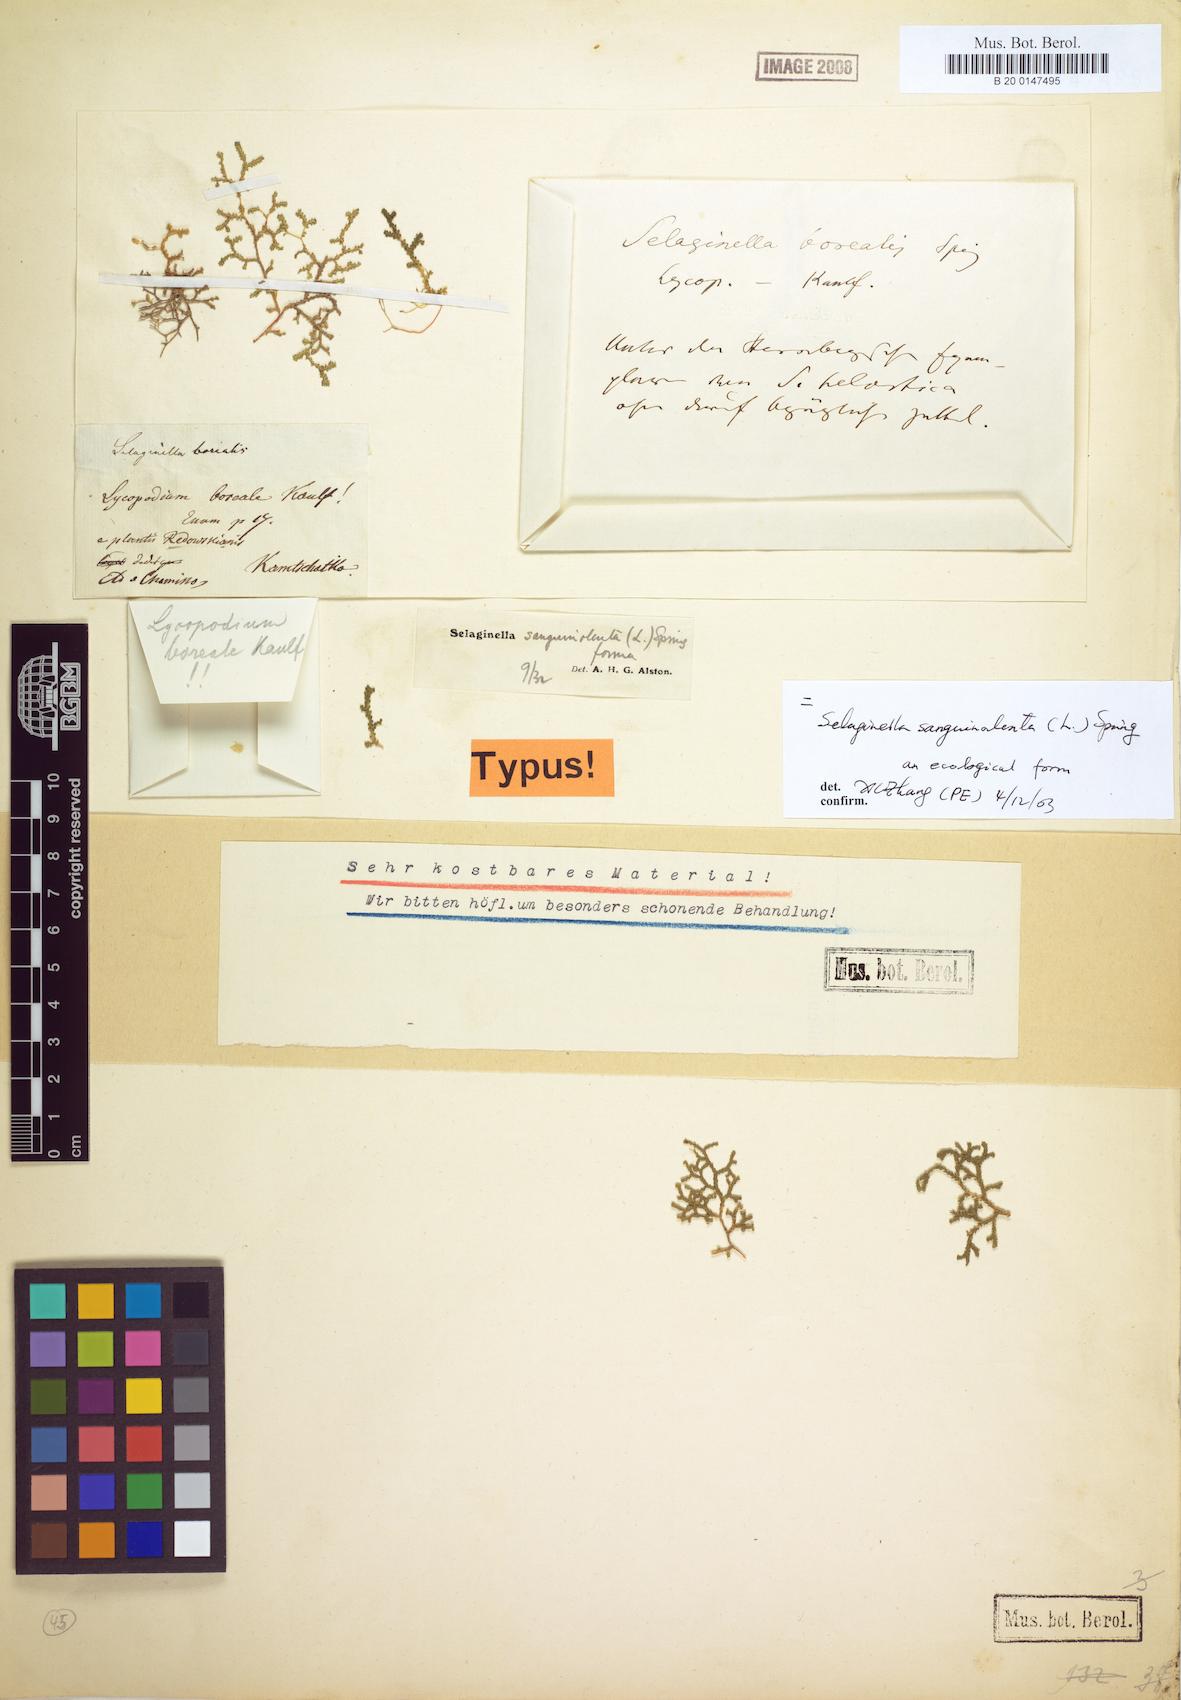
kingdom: Plantae
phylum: Tracheophyta
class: Lycopodiopsida
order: Selaginellales
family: Selaginellaceae
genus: Selaginella
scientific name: Selaginella sanguinolenta
